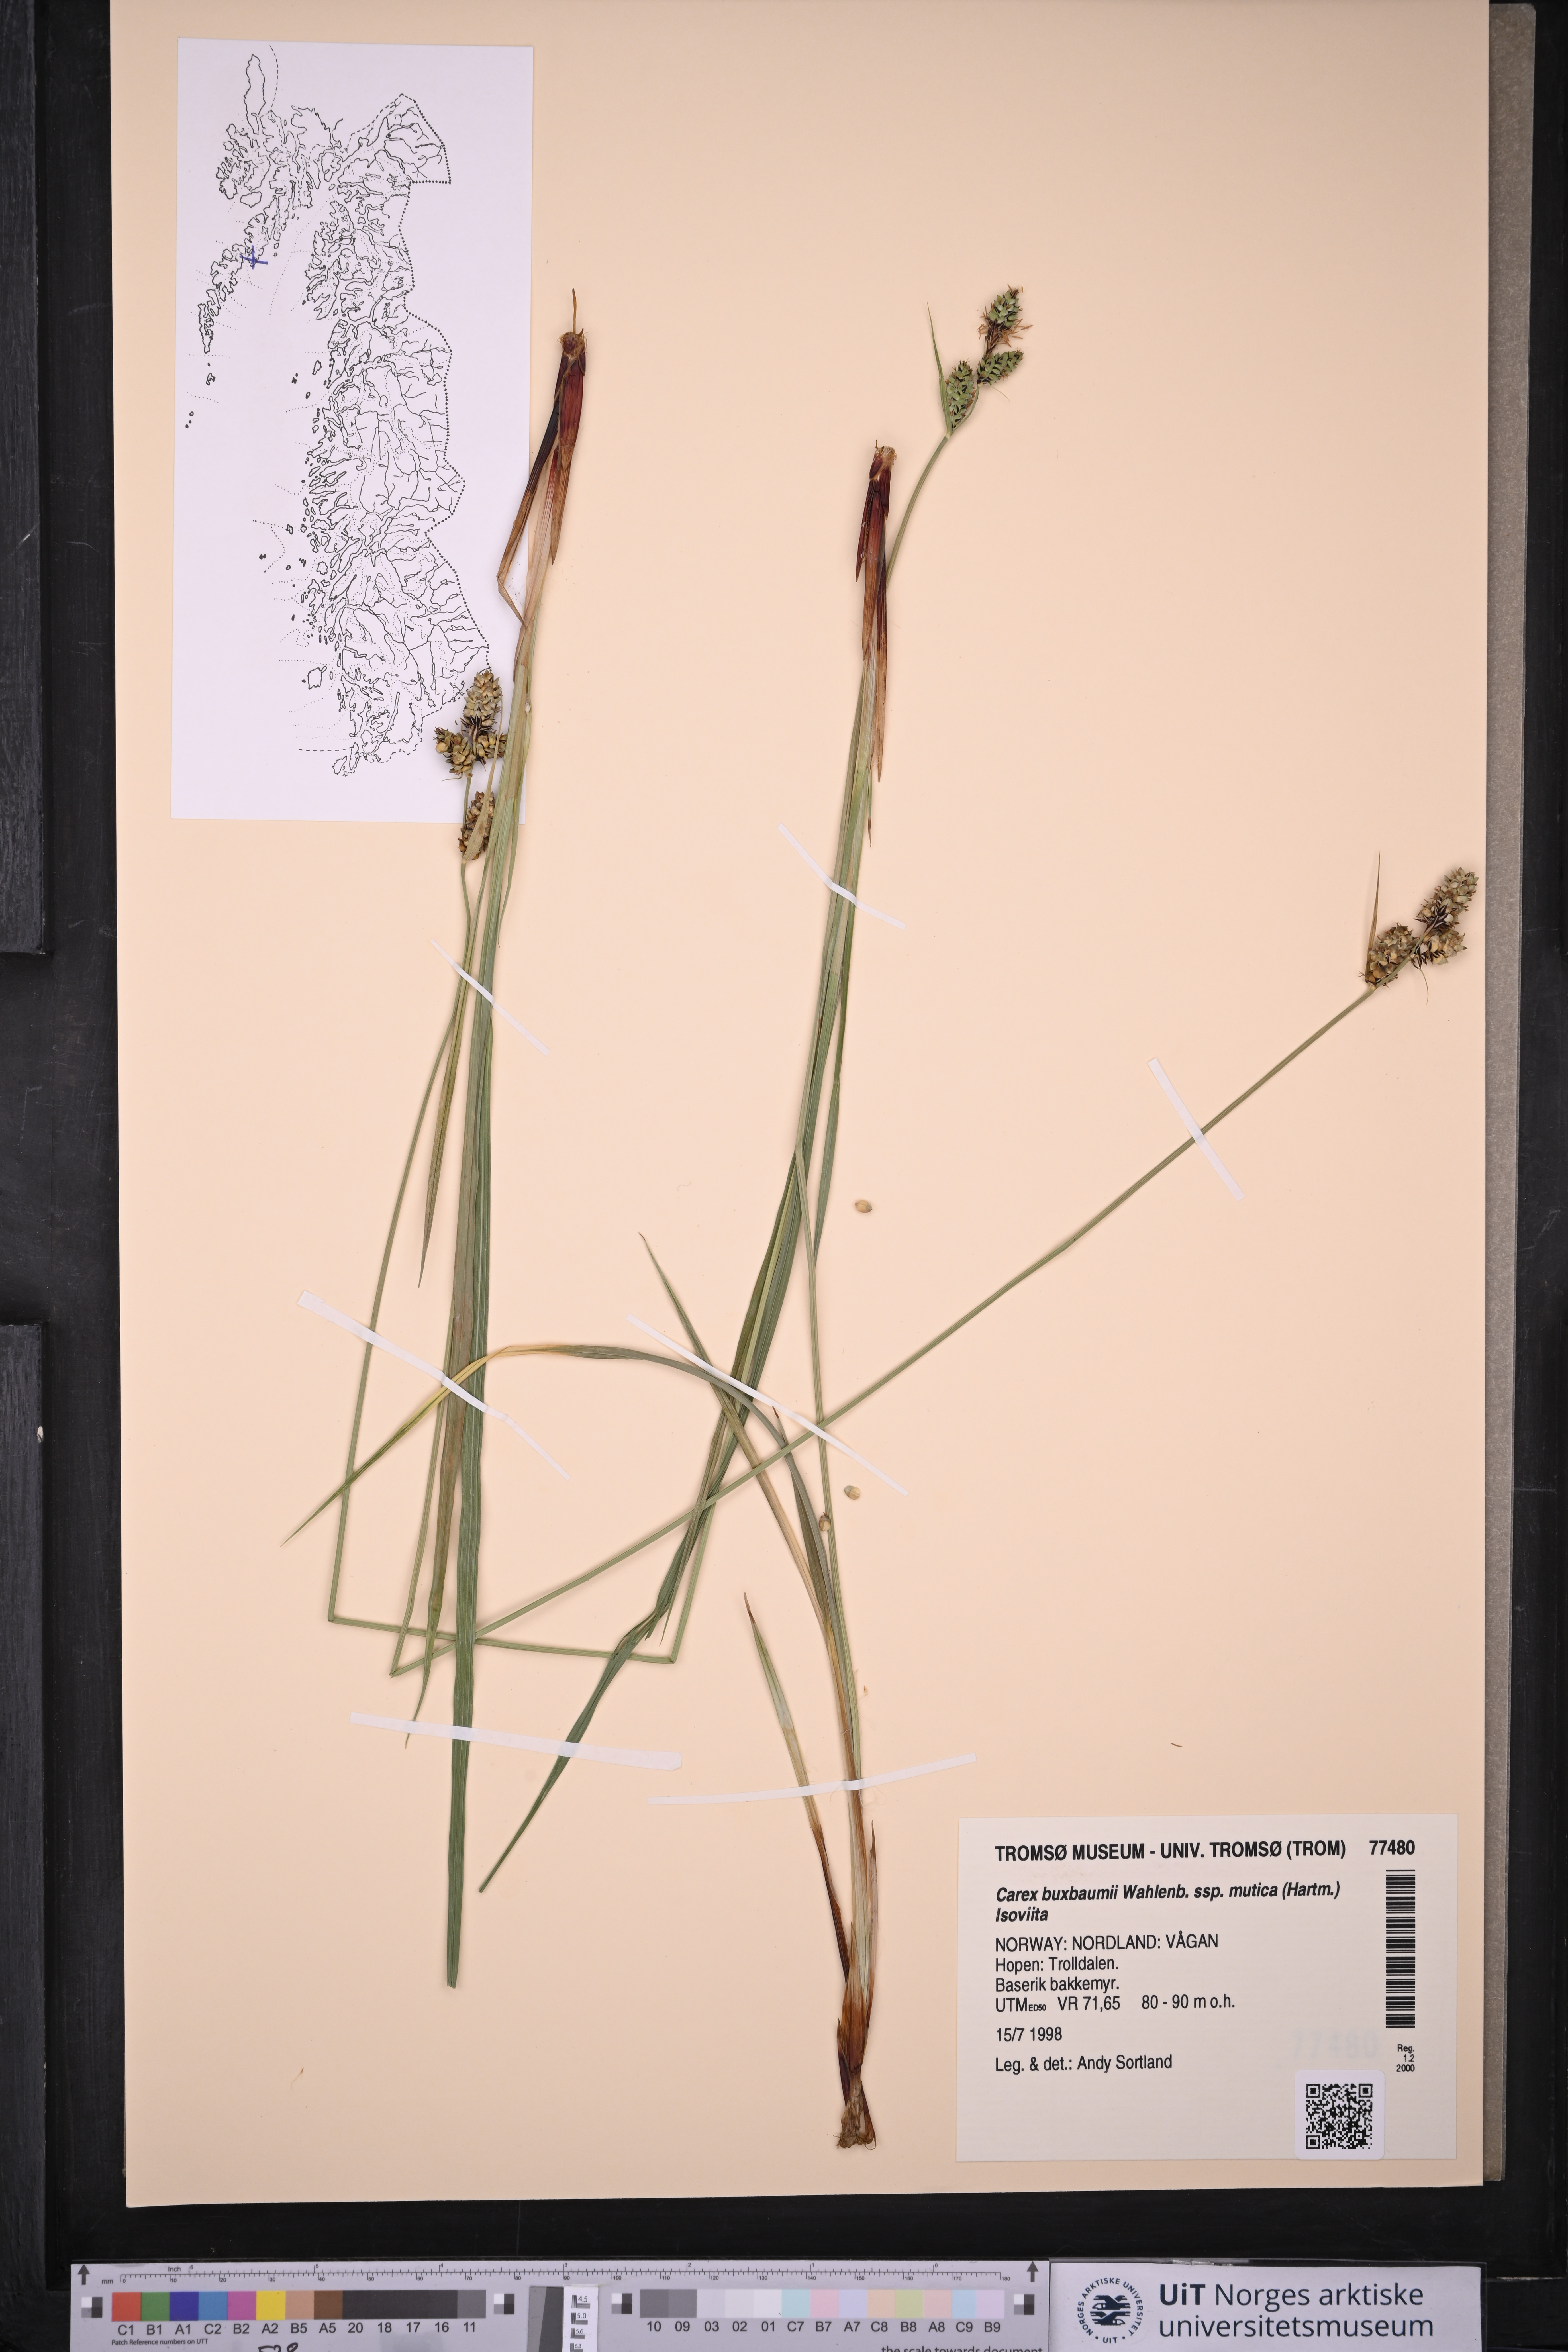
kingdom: Plantae
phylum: Tracheophyta
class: Liliopsida
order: Poales
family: Cyperaceae
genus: Carex
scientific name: Carex adelostoma
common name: Circumpolar sedge
